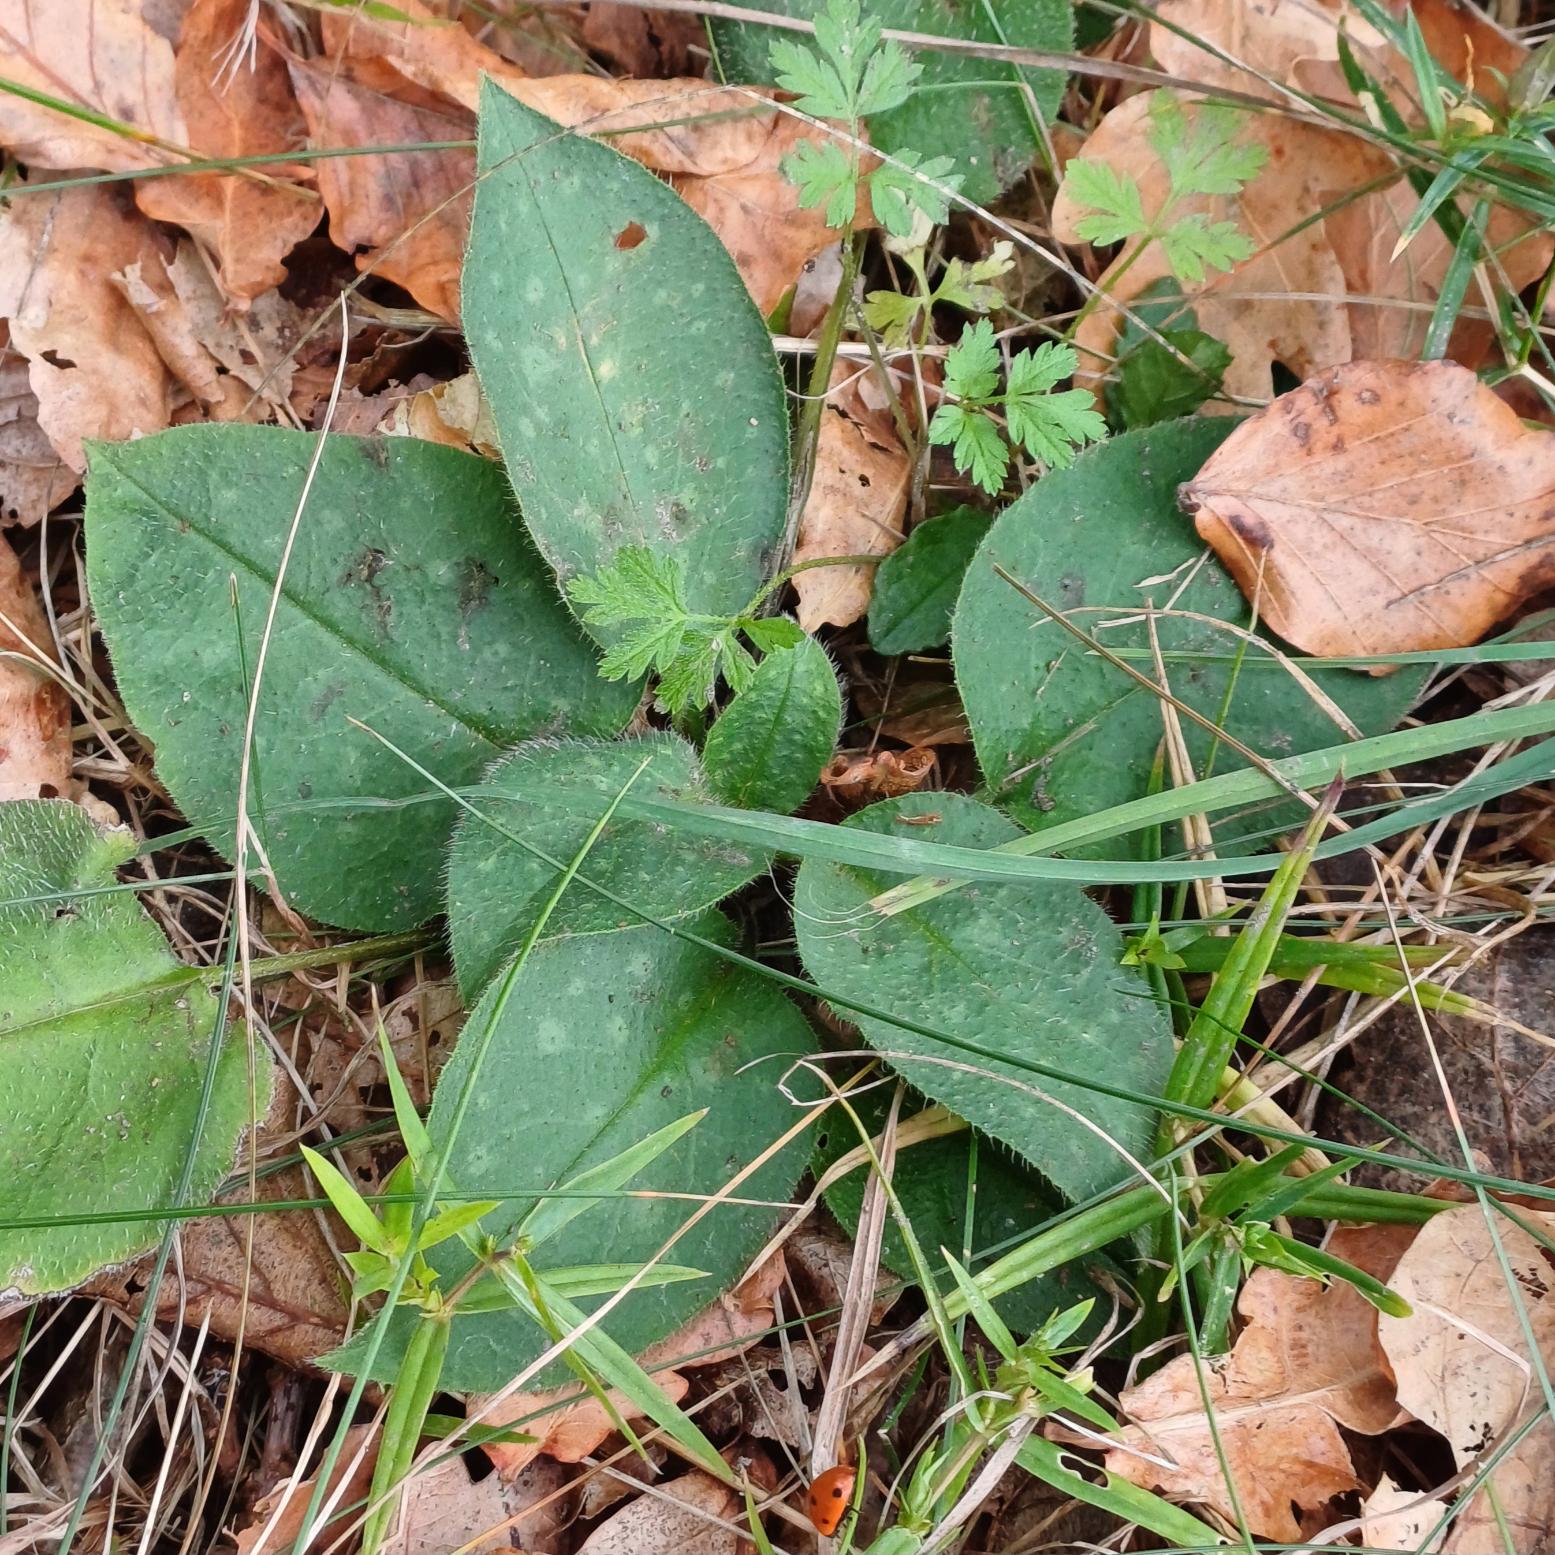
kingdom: Plantae
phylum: Tracheophyta
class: Magnoliopsida
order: Boraginales
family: Boraginaceae
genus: Pulmonaria
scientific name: Pulmonaria officinalis
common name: Hvidplettet lungeurt
